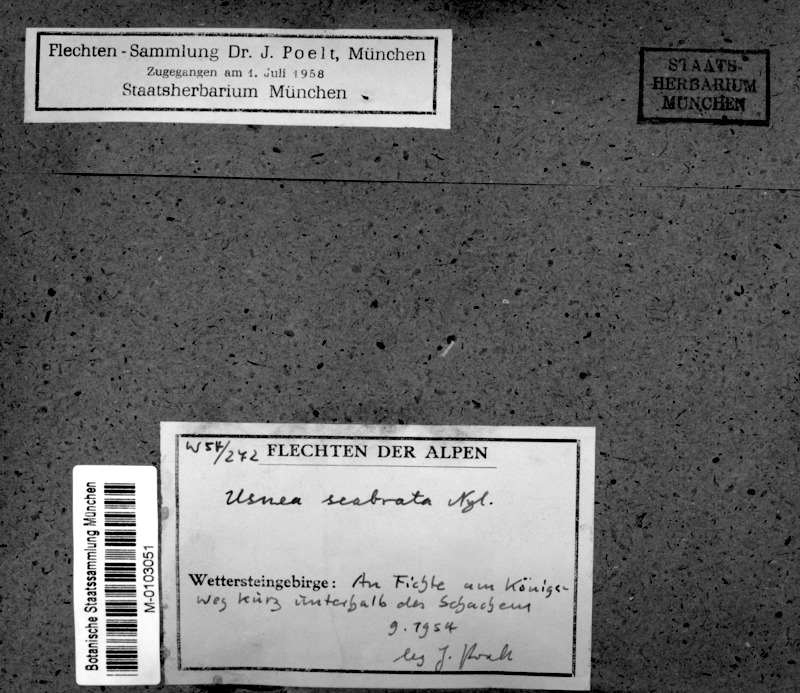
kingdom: Fungi
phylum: Ascomycota
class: Lecanoromycetes
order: Lecanorales
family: Parmeliaceae
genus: Usnea
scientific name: Usnea scabrata
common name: Straw beard lichen
